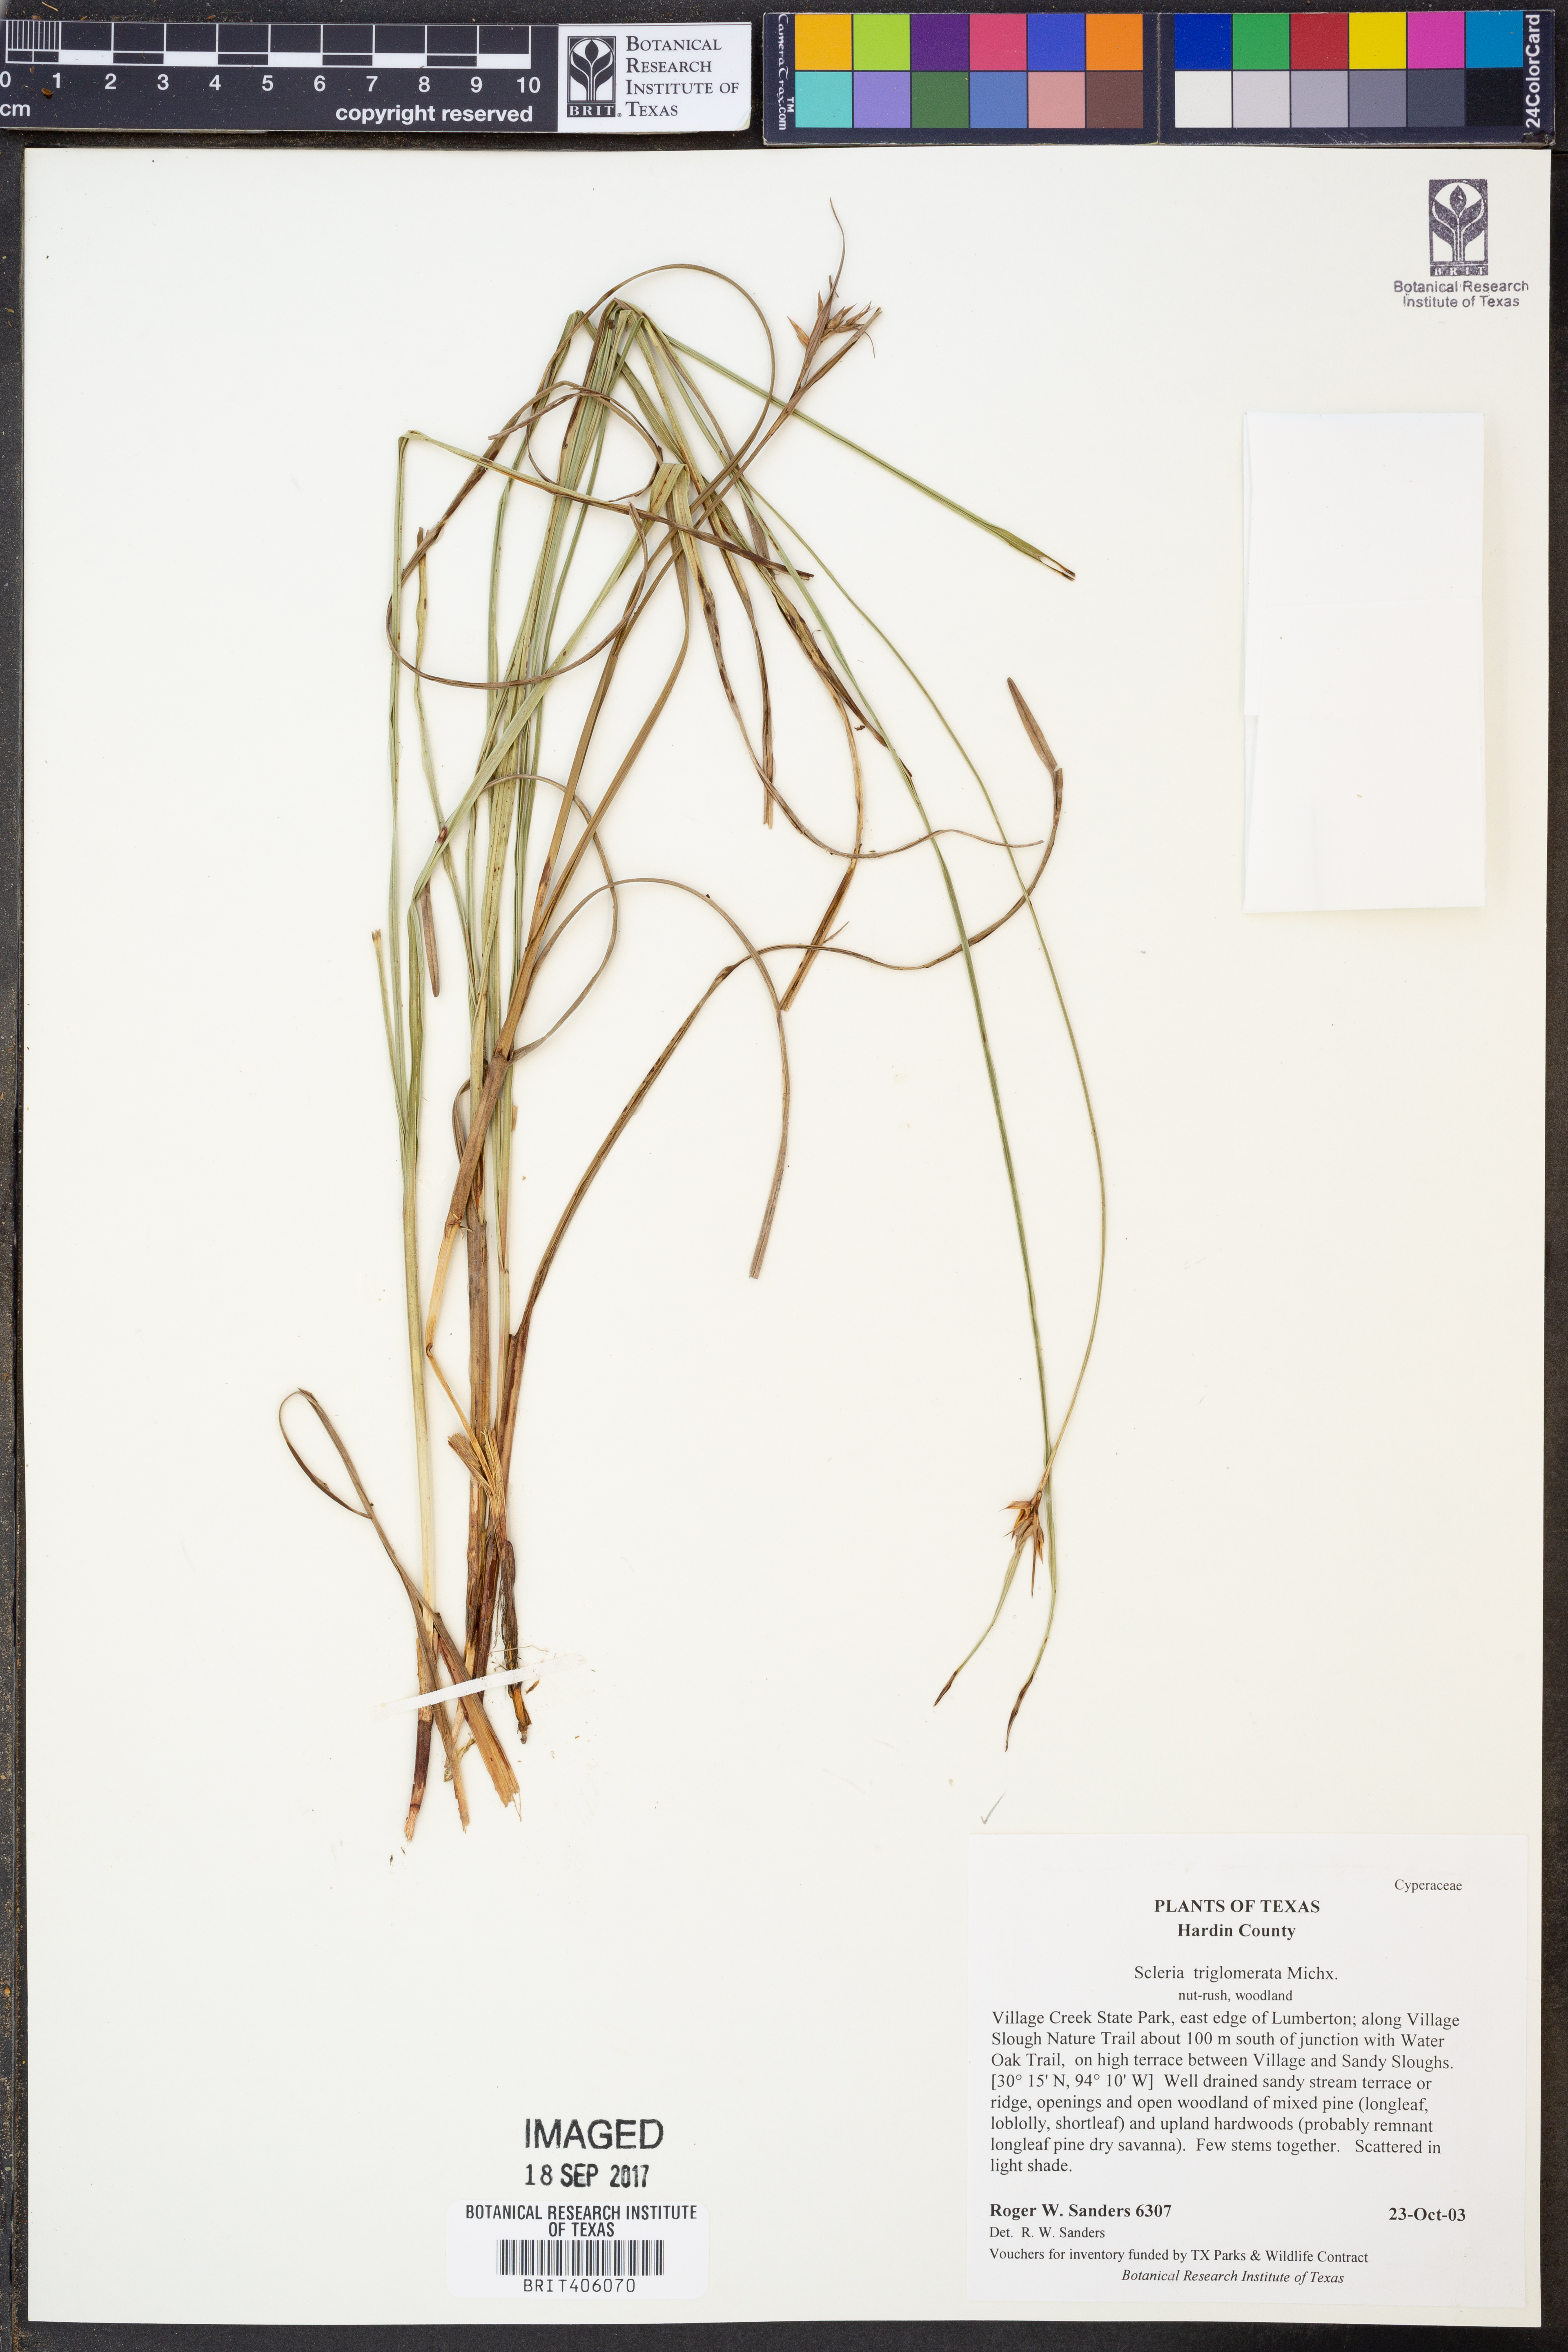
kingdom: Plantae
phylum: Tracheophyta
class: Liliopsida
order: Poales
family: Cyperaceae
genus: Scleria
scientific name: Scleria triglomerata
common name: Whip nutrush
